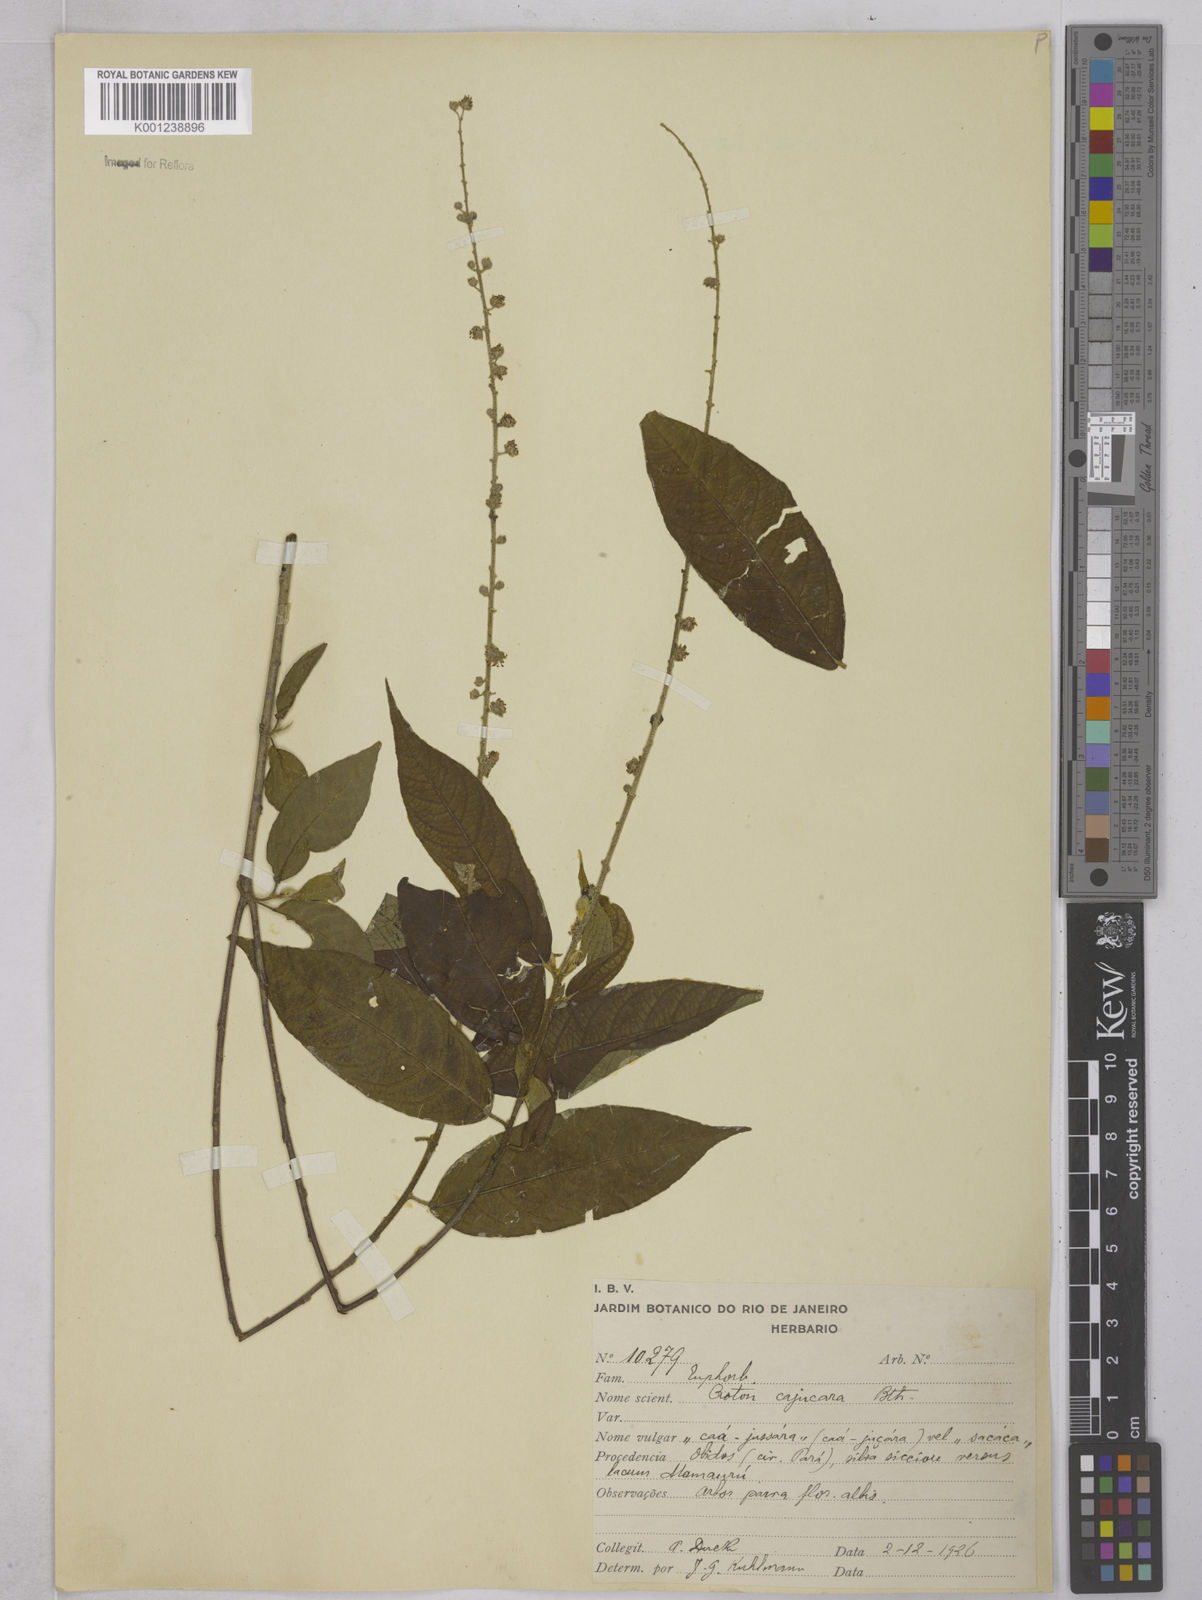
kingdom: Plantae
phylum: Tracheophyta
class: Magnoliopsida
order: Malpighiales
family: Euphorbiaceae
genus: Croton
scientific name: Croton cajucara
